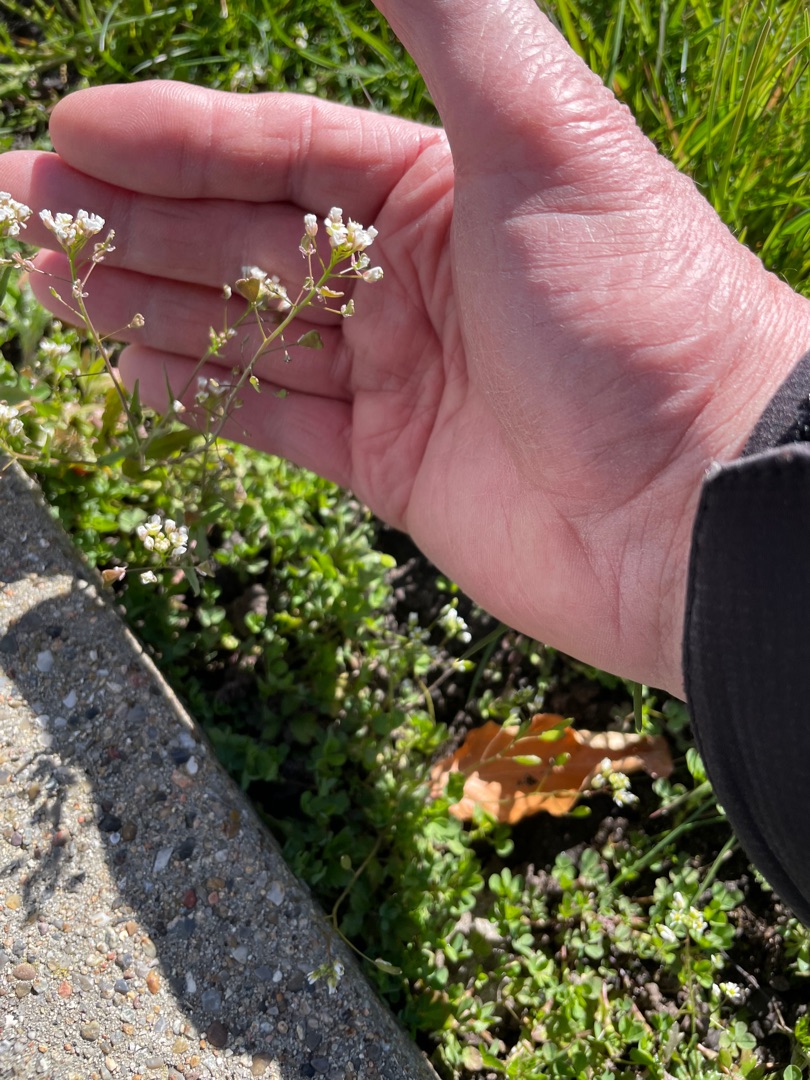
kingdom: Plantae
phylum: Tracheophyta
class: Magnoliopsida
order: Brassicales
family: Brassicaceae
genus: Capsella
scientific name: Capsella bursa-pastoris
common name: Hyrdetaske
